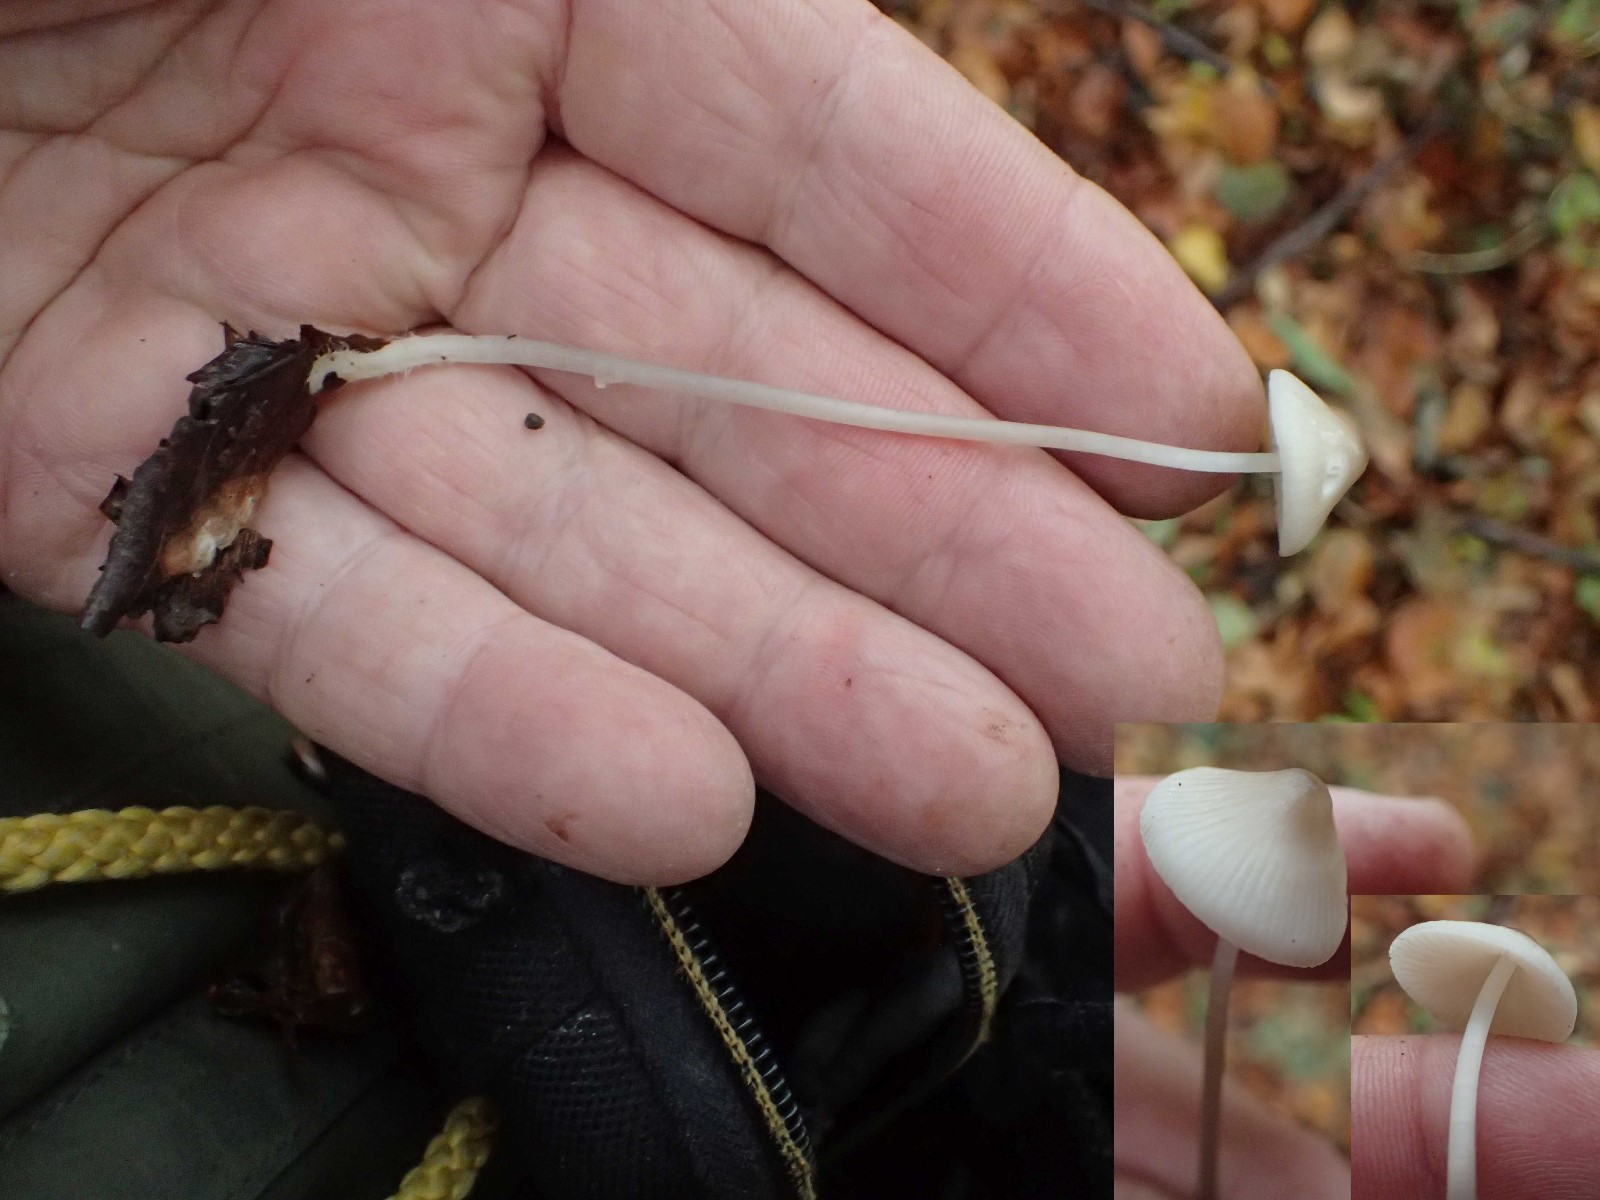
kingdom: Fungi
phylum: Basidiomycota
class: Agaricomycetes
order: Agaricales
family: Mycenaceae
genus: Mycena
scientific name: Mycena
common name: huesvamp
